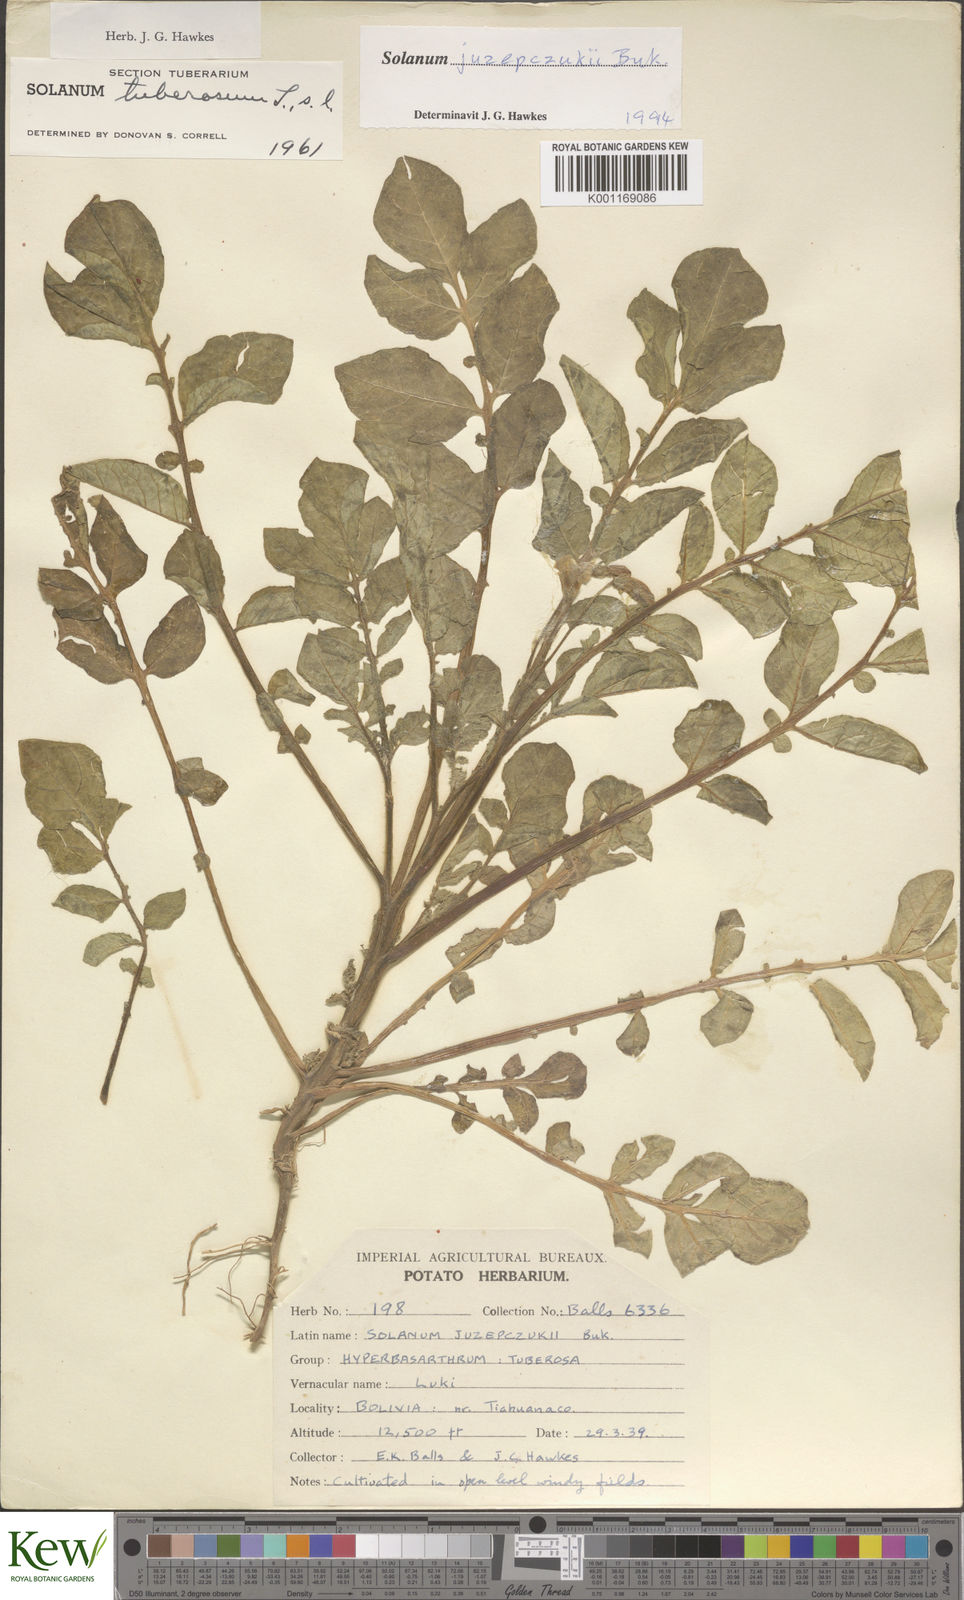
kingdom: Plantae
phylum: Tracheophyta
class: Magnoliopsida
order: Solanales
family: Solanaceae
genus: Solanum
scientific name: Solanum juzepczukii
